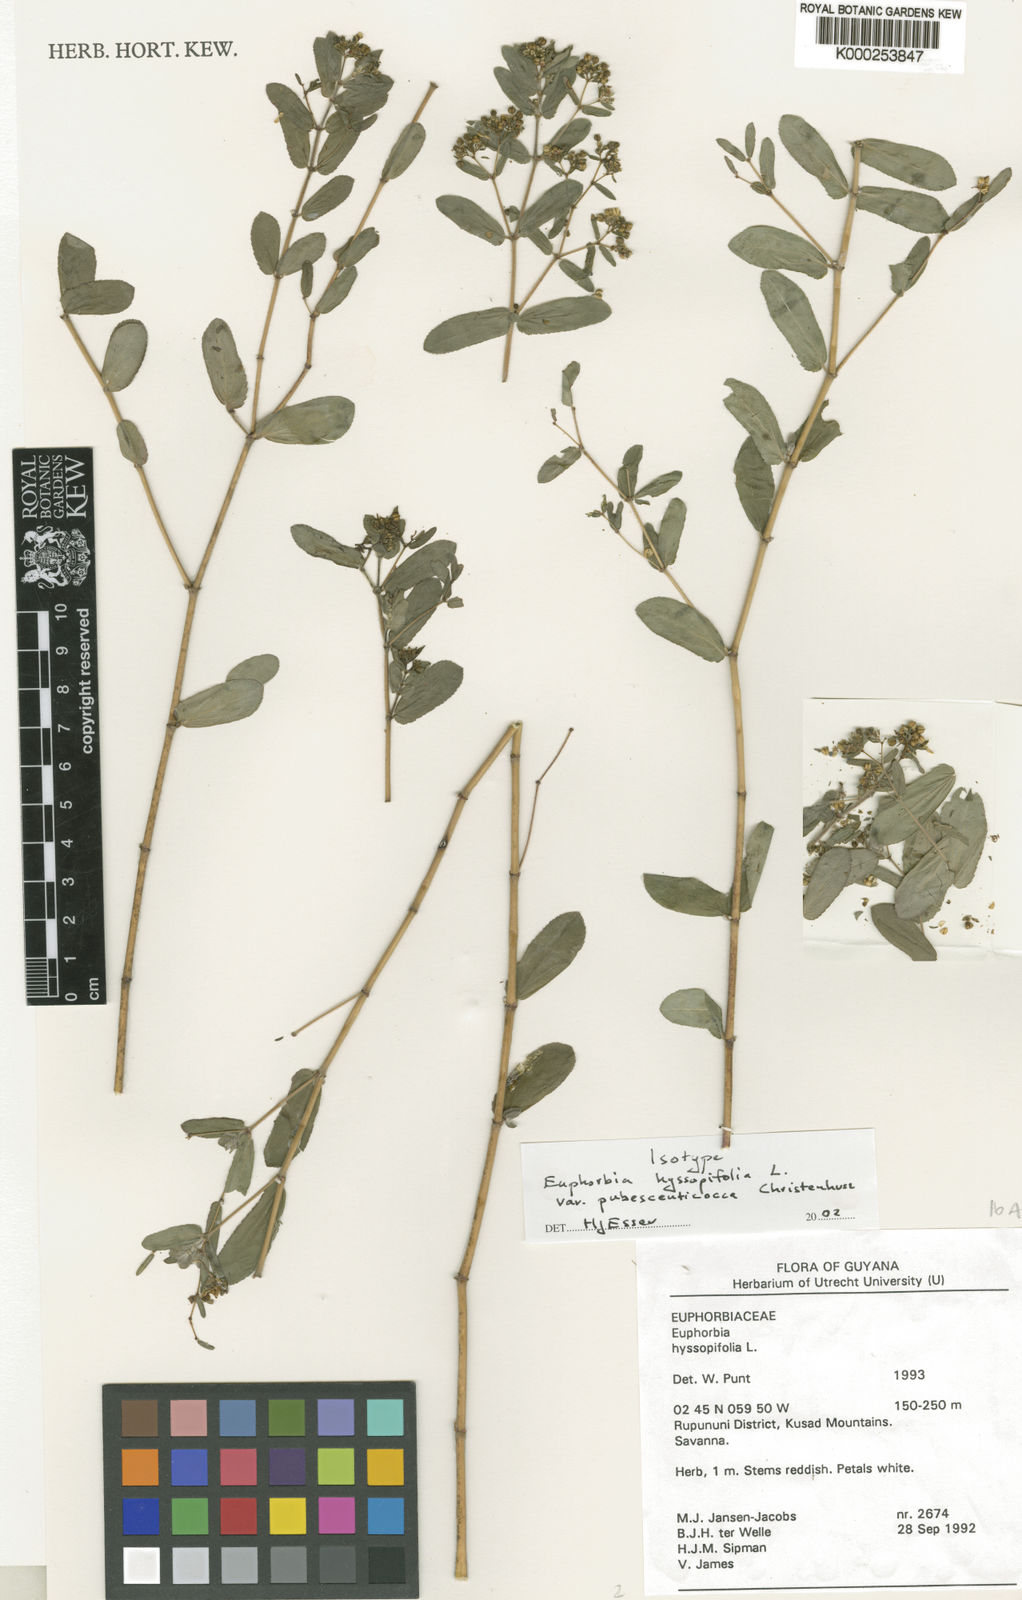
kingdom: Plantae
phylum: Tracheophyta
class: Magnoliopsida
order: Malpighiales
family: Euphorbiaceae
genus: Euphorbia
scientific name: Euphorbia hyssopifolia
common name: Hyssopleaf sandmat
